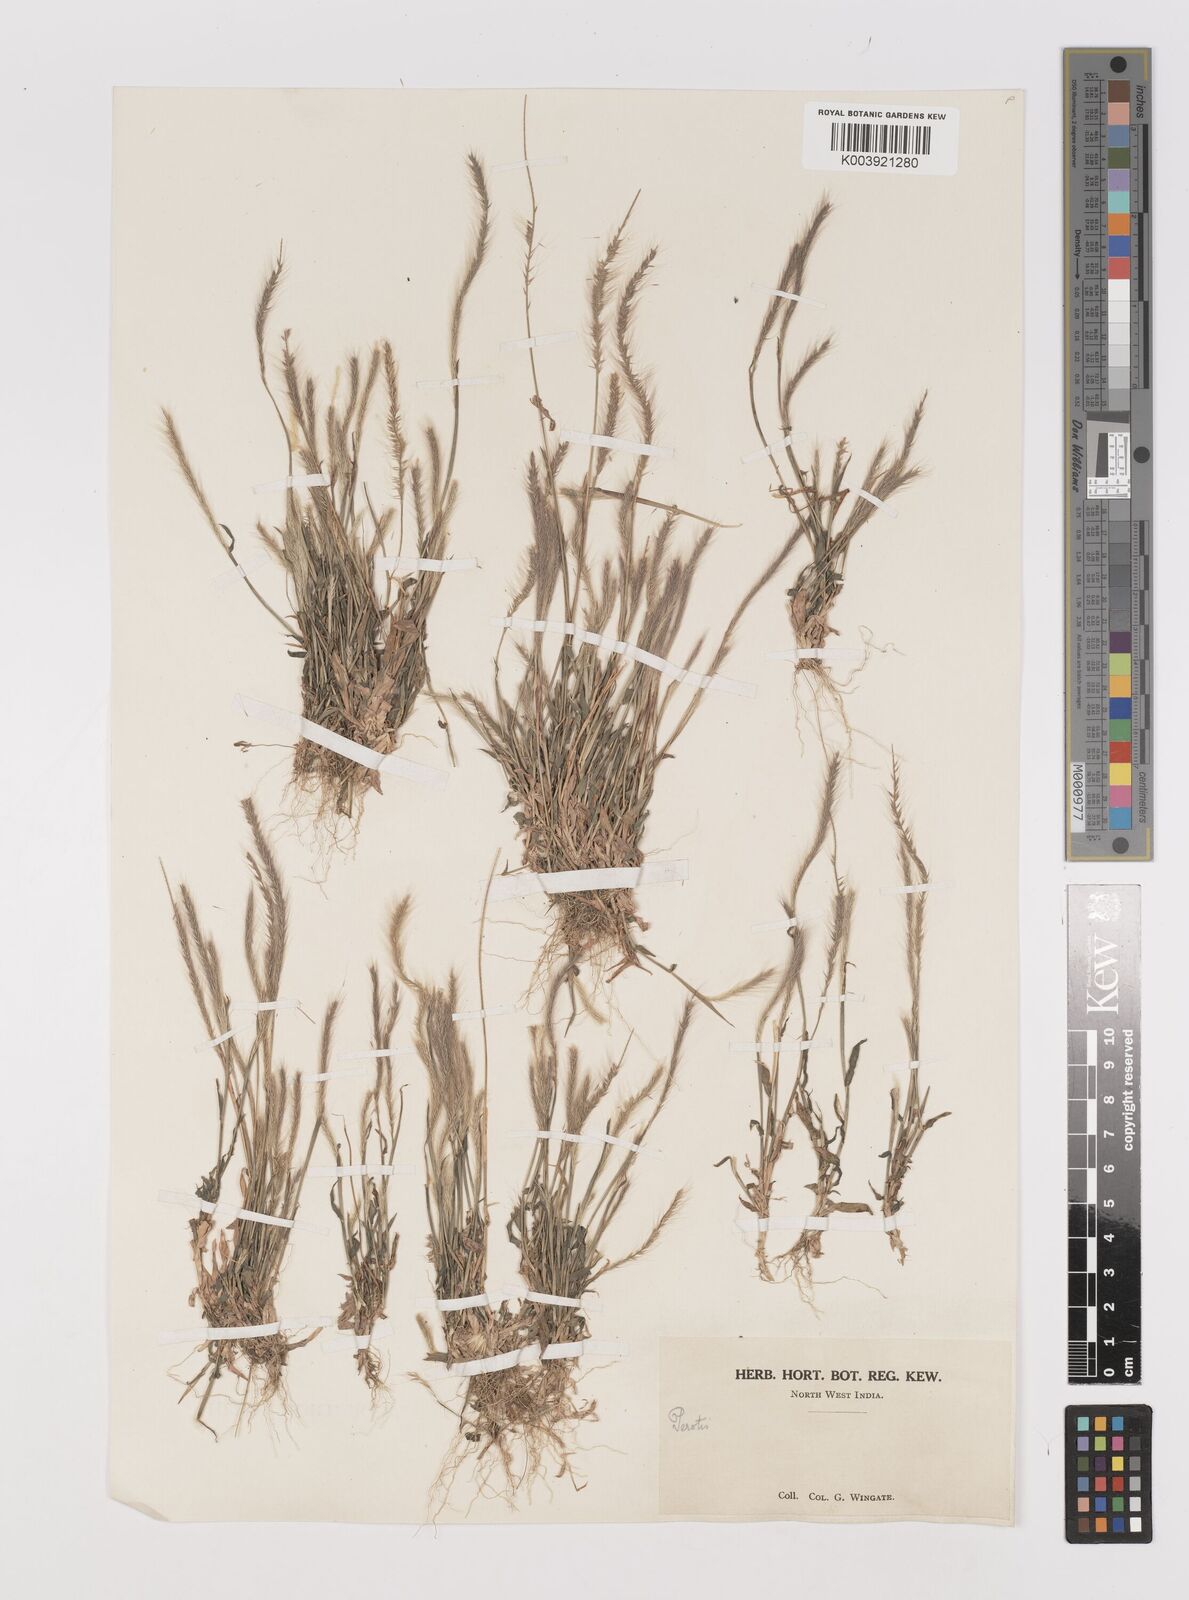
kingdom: Plantae
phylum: Tracheophyta
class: Liliopsida
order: Poales
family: Poaceae
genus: Perotis
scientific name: Perotis hordeiformis
